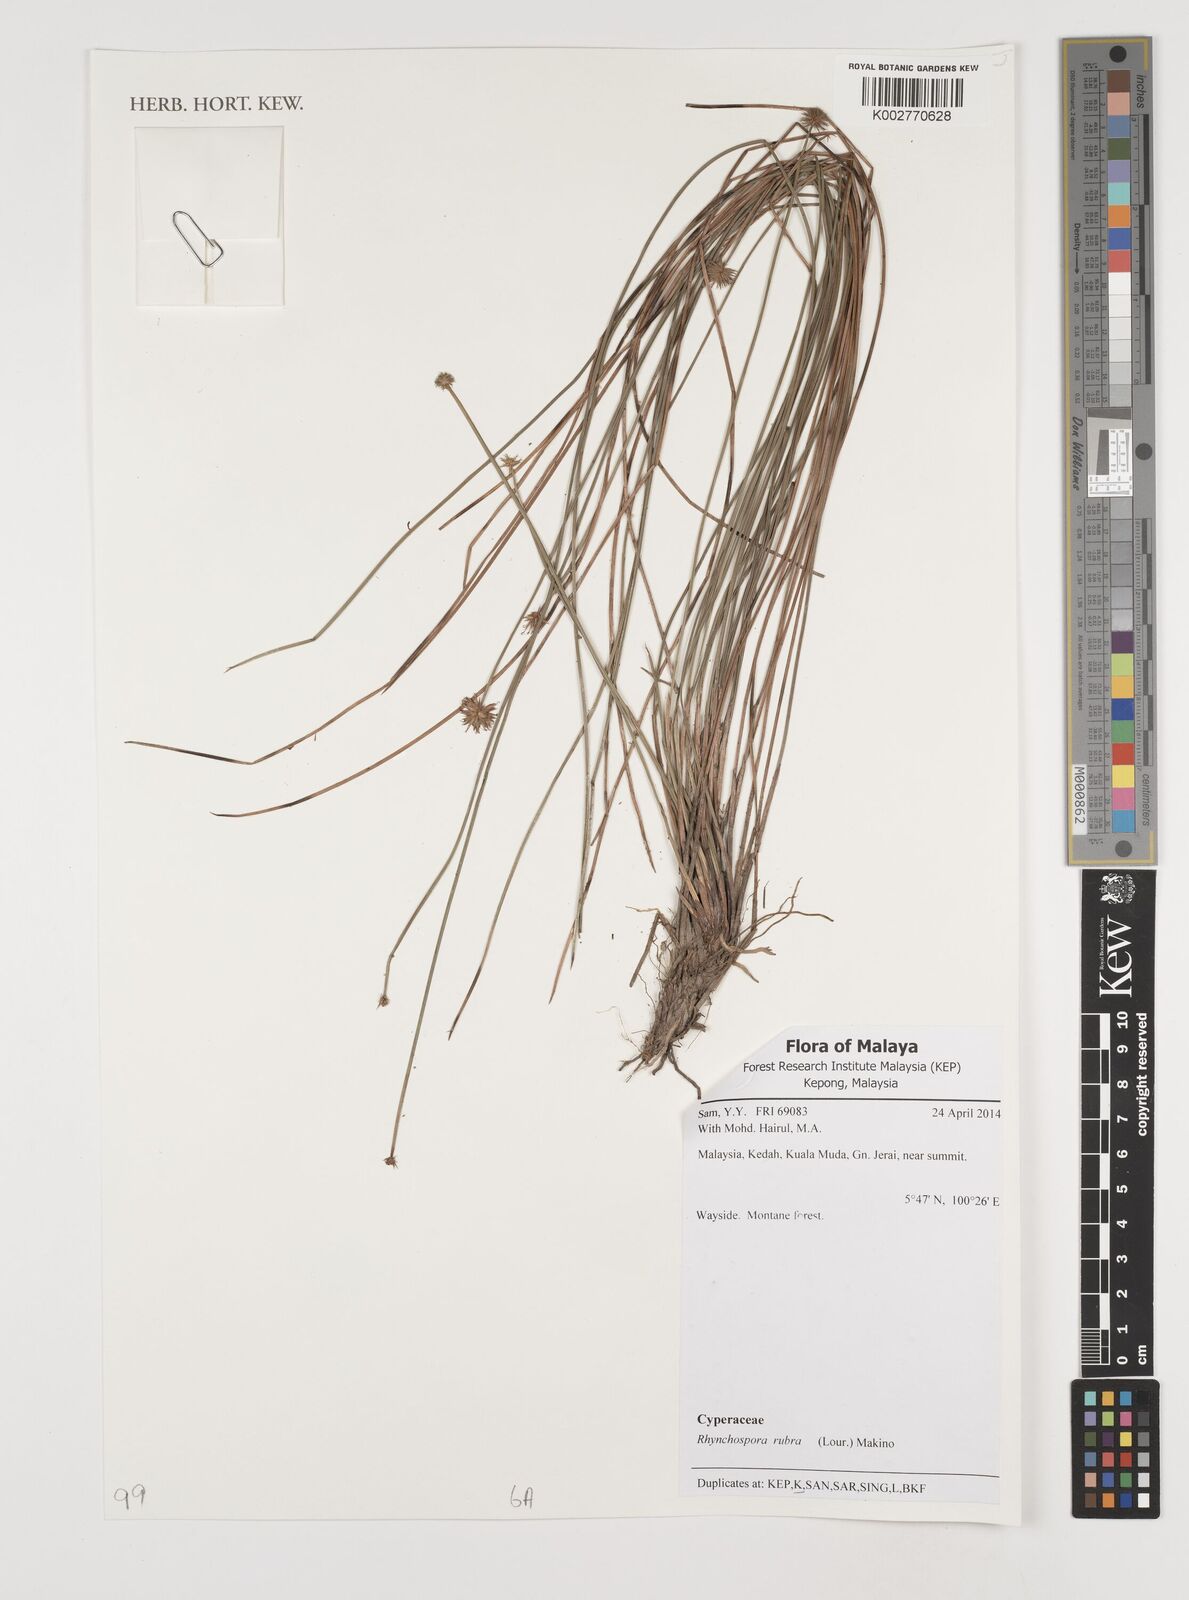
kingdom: Plantae
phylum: Tracheophyta
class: Liliopsida
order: Poales
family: Cyperaceae
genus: Rhynchospora
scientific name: Rhynchospora rubra
